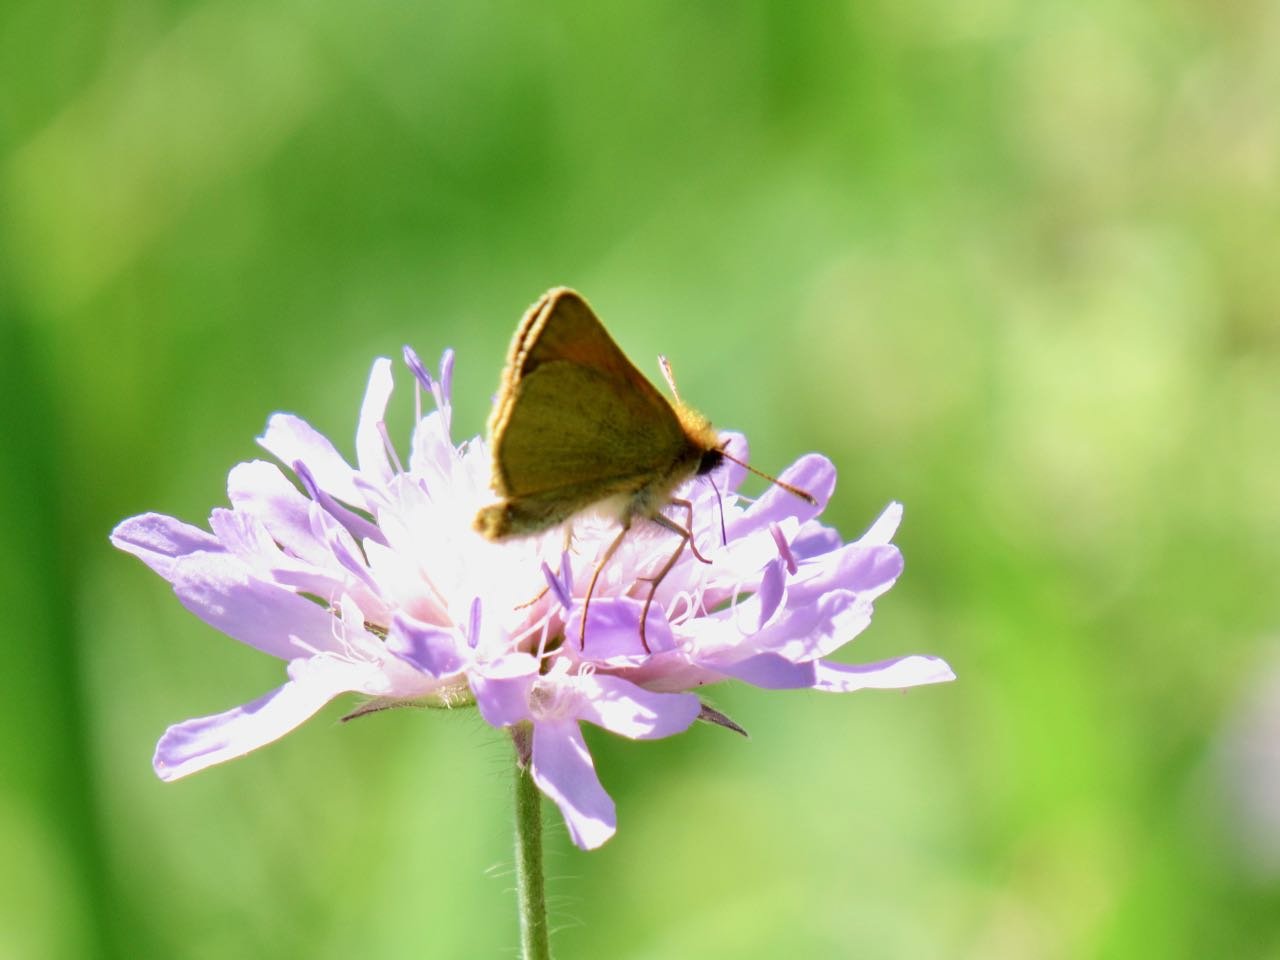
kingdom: Animalia
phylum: Arthropoda
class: Insecta
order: Lepidoptera
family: Hesperiidae
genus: Thymelicus
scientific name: Thymelicus lineola
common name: European Skipper
